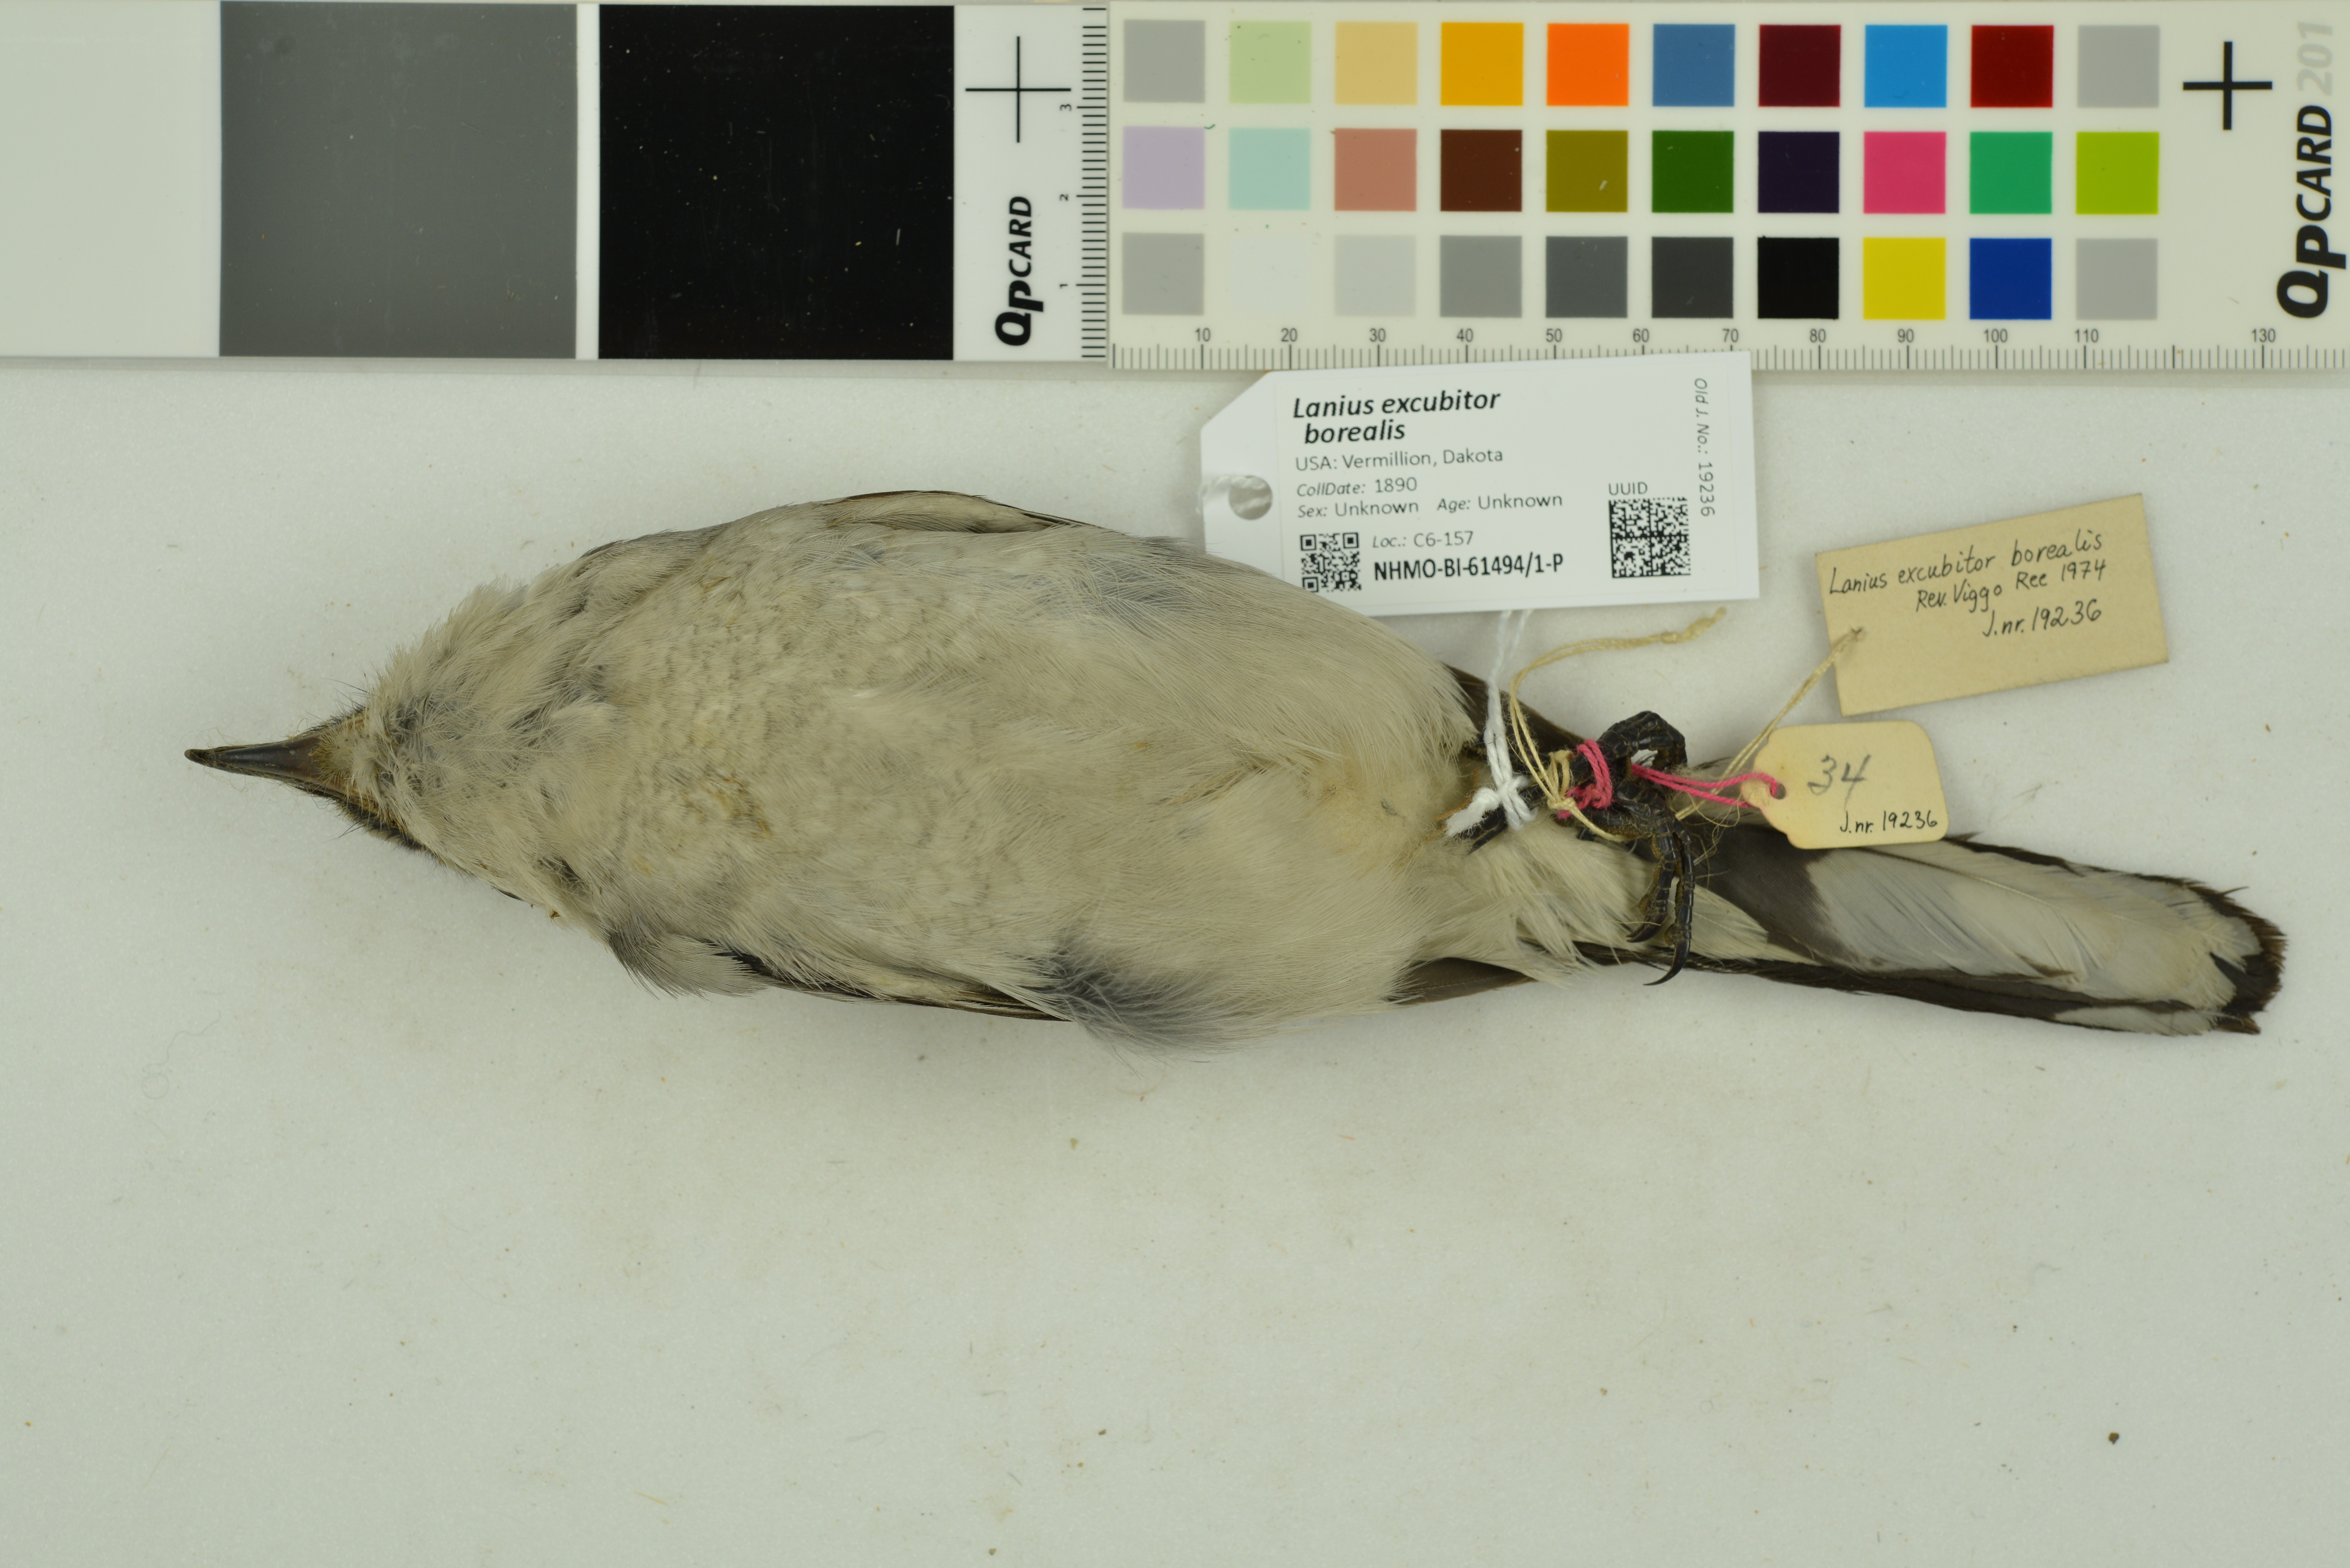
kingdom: Animalia
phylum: Chordata
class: Aves
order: Passeriformes
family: Laniidae
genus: Lanius
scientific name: Lanius borealis
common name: Northern shrike
